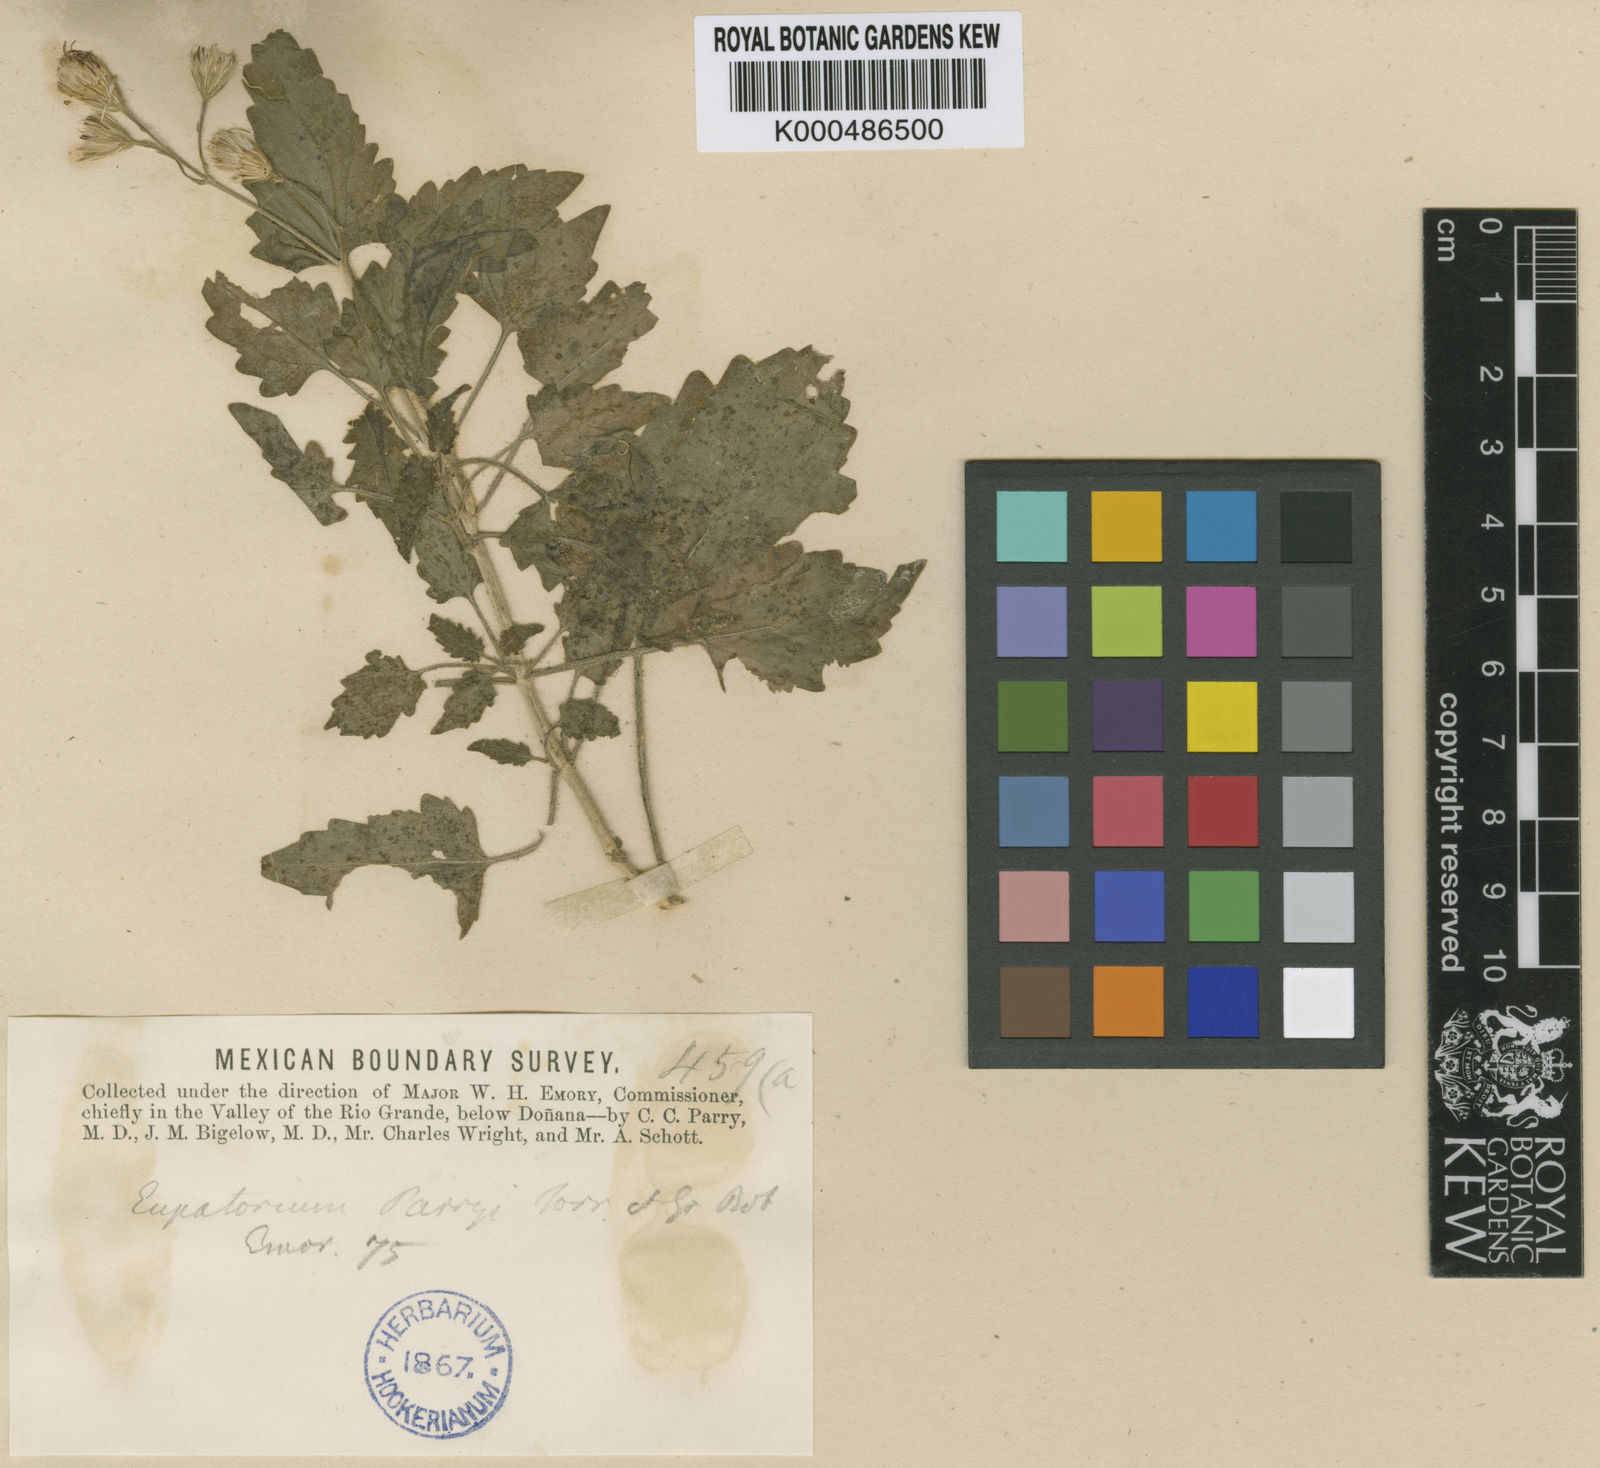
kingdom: Plantae
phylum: Tracheophyta
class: Magnoliopsida
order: Asterales
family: Asteraceae
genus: Flyriella
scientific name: Flyriella parryi
